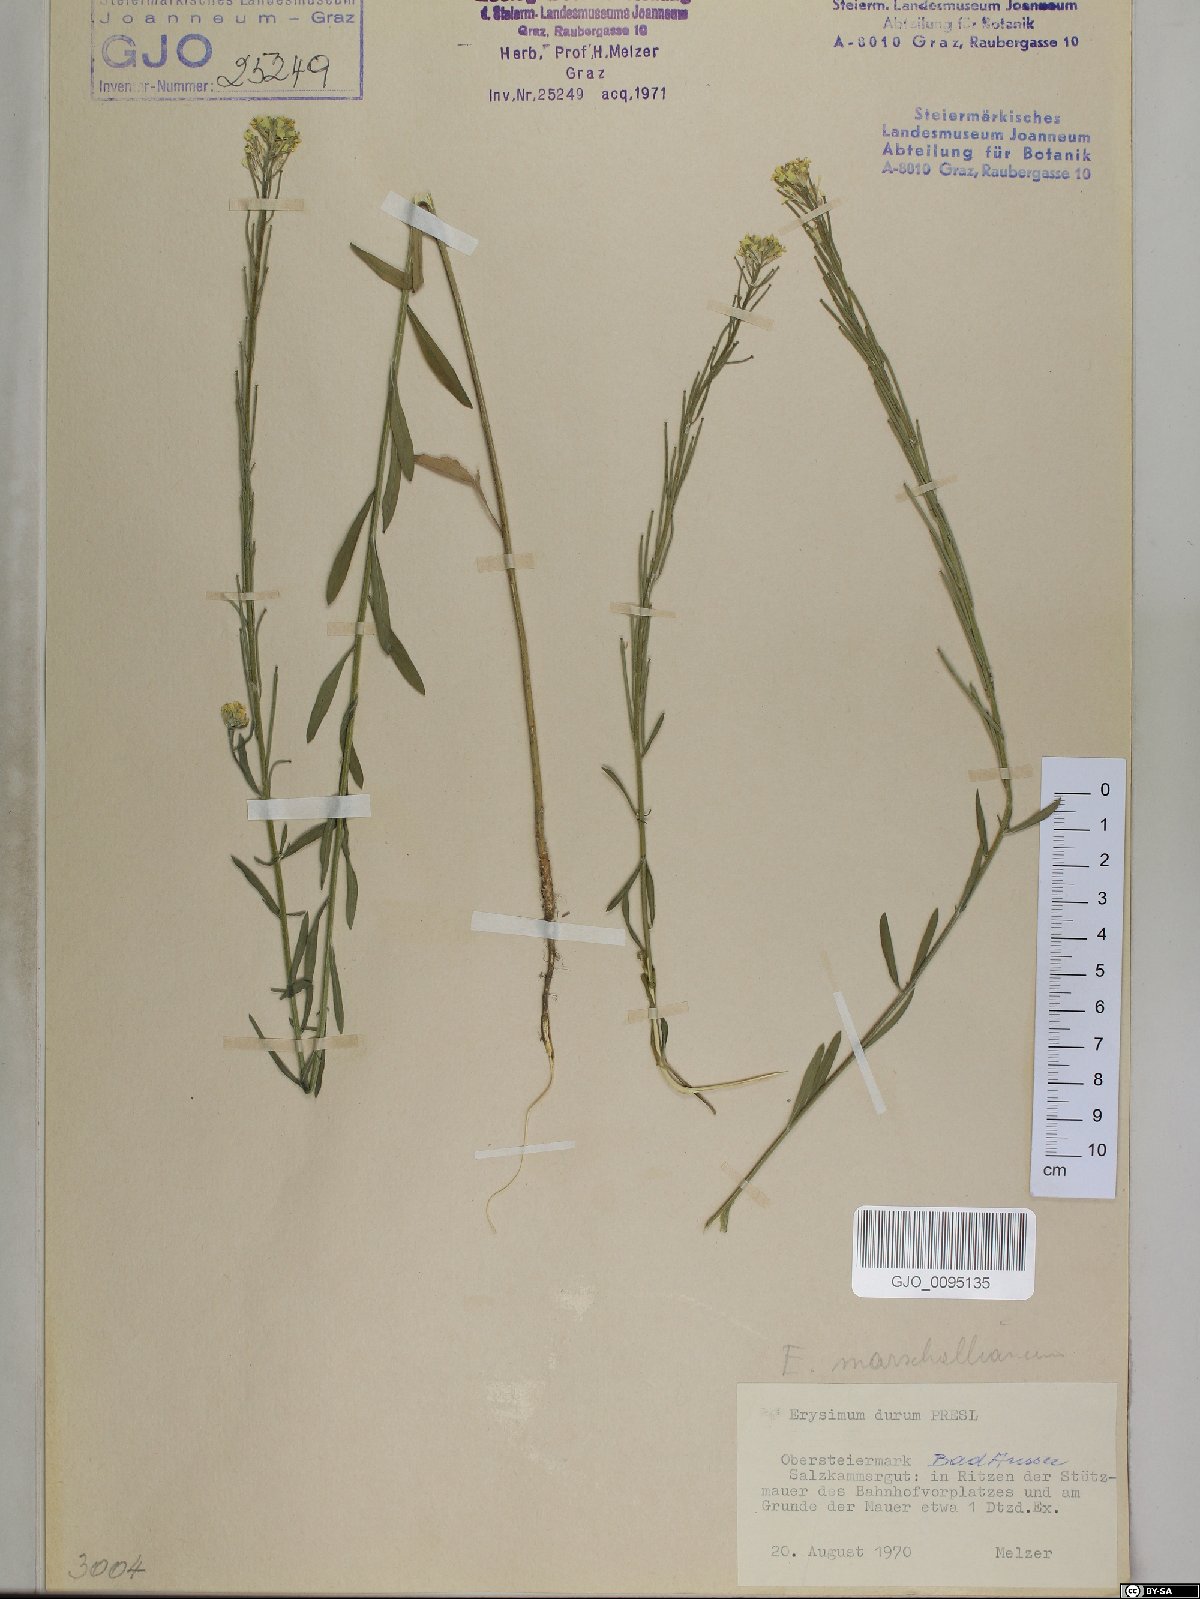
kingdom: Plantae
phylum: Tracheophyta
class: Magnoliopsida
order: Brassicales
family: Brassicaceae
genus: Erysimum
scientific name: Erysimum marschallianum
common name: Hard wallflower
